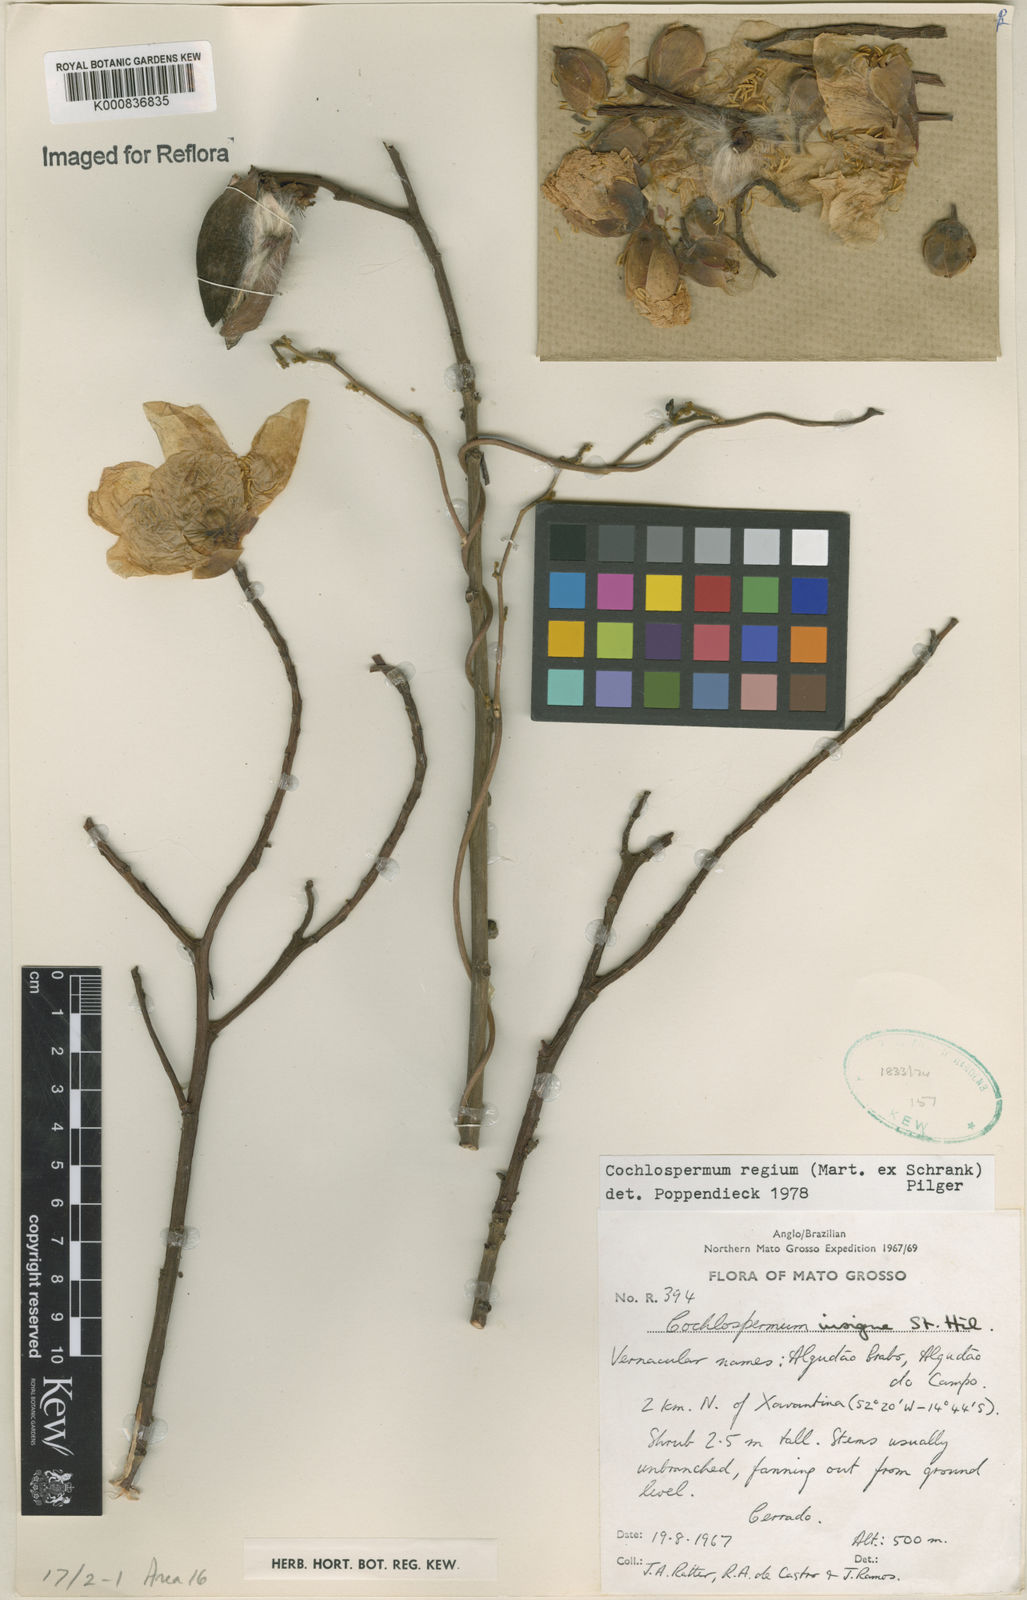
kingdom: Plantae
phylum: Tracheophyta
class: Magnoliopsida
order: Malvales
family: Cochlospermaceae
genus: Cochlospermum
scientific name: Cochlospermum regium
